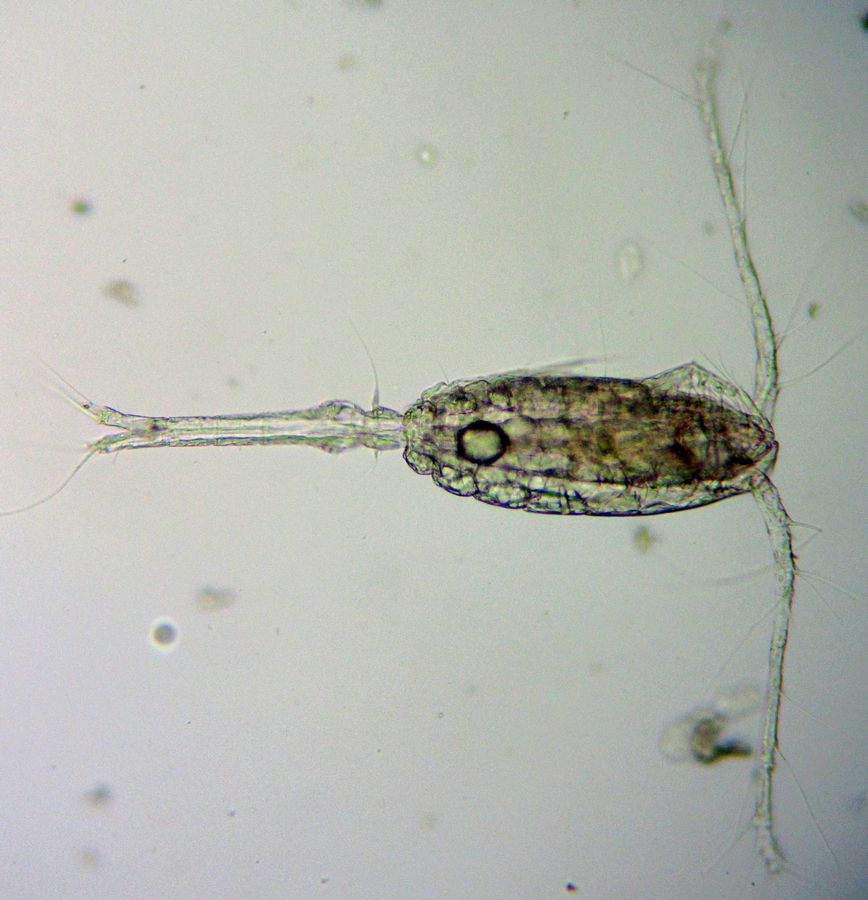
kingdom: Animalia
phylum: Arthropoda
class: Copepoda
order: Cyclopoida
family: Oithonidae
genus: Oithona
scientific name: Oithona similis
